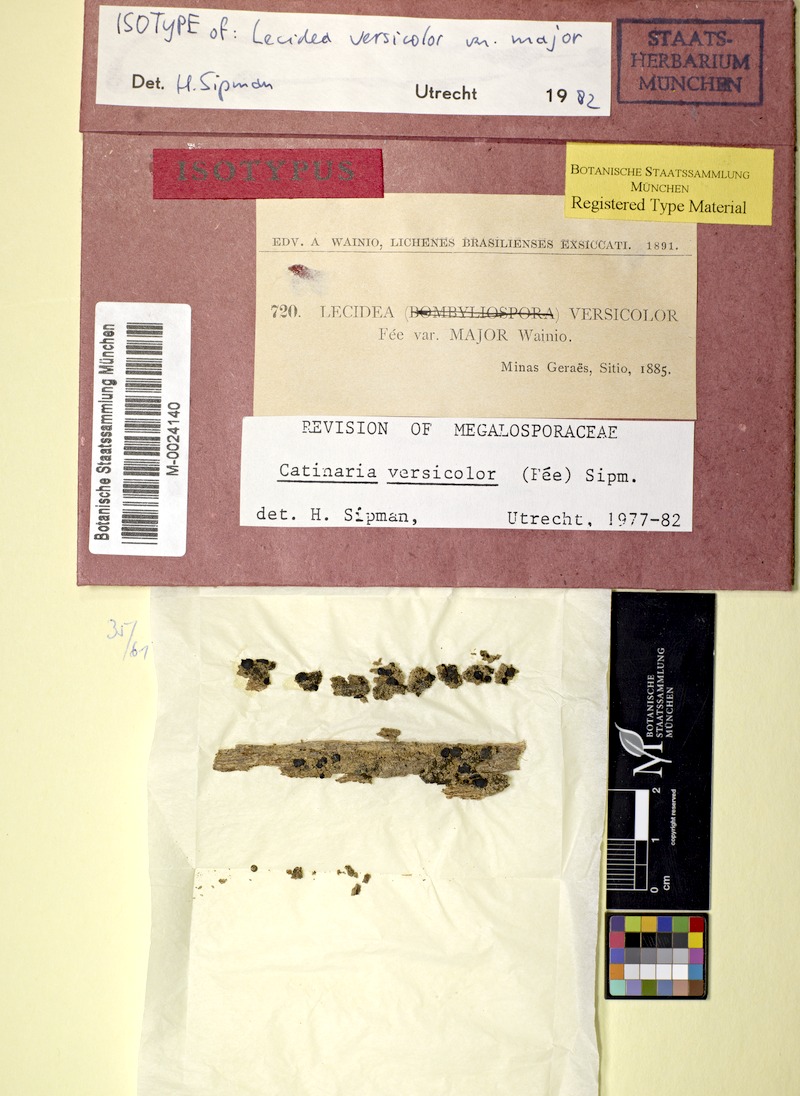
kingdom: Fungi
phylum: Ascomycota
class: Lecanoromycetes
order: Lecanorales
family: Ramalinaceae
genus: Lopezaria
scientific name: Lopezaria versicolor
